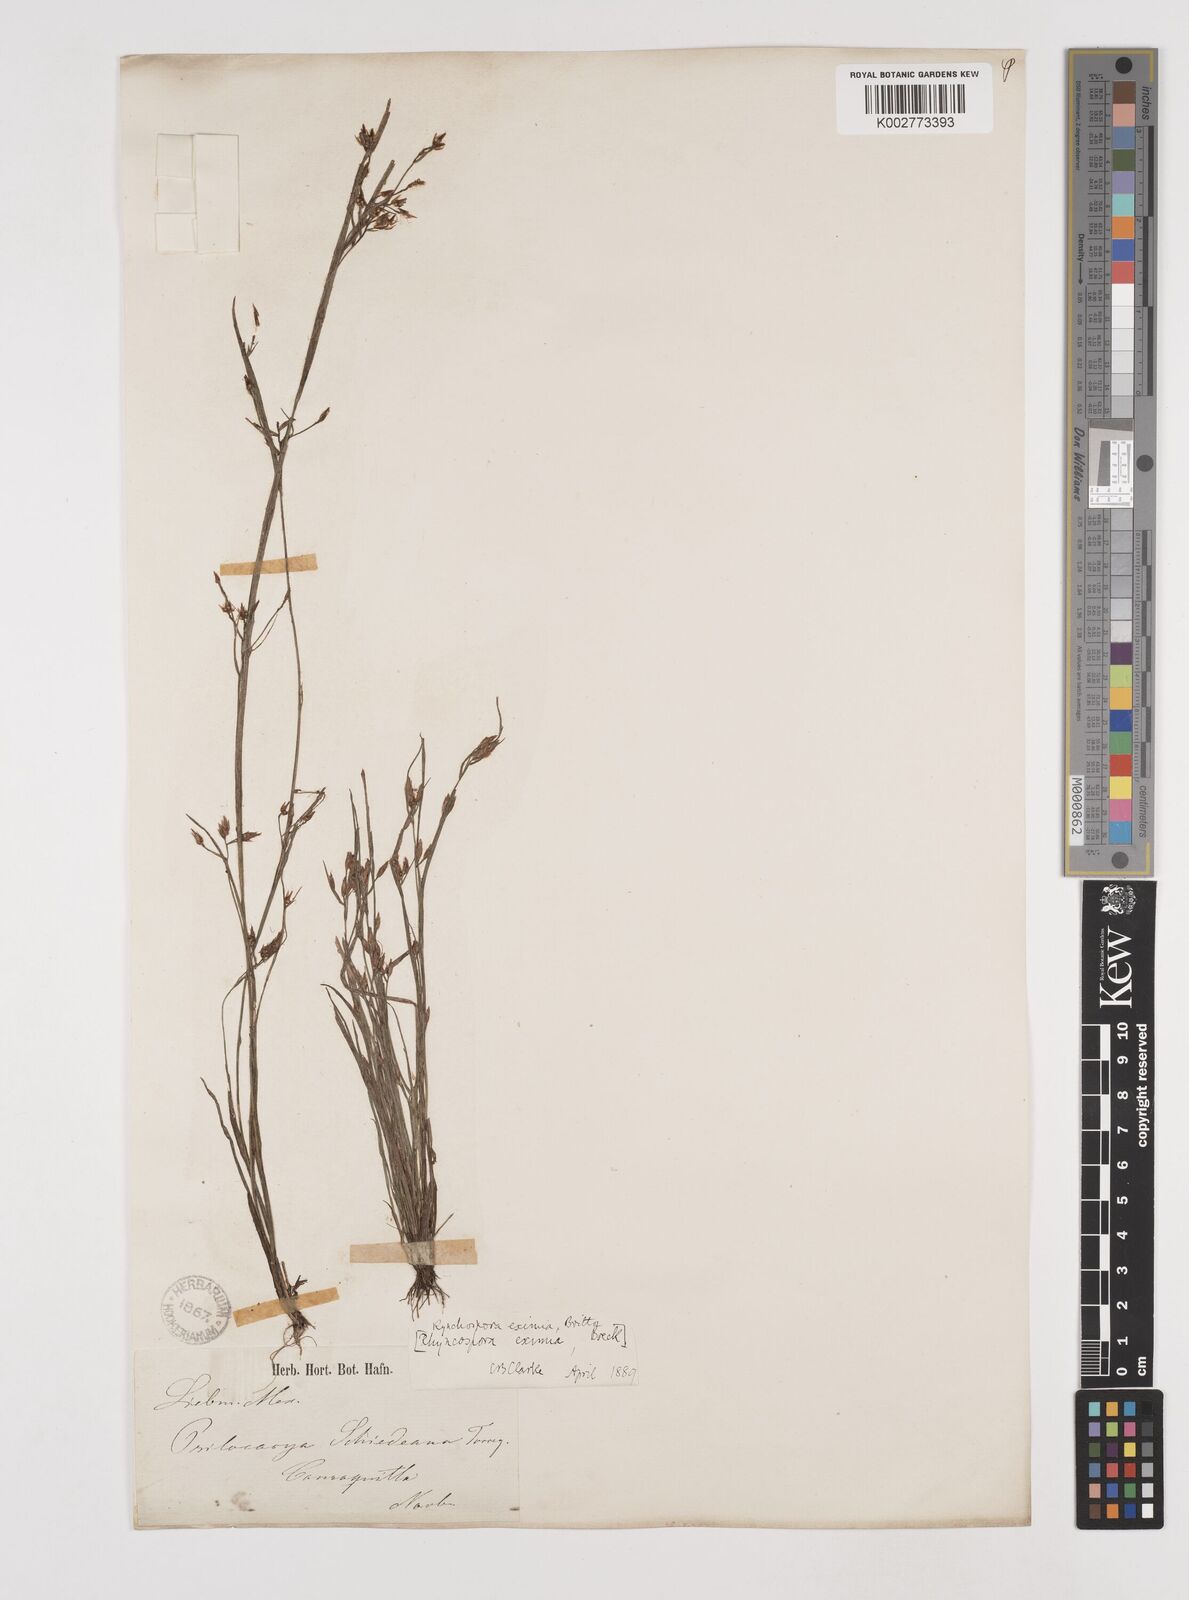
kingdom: Plantae
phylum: Tracheophyta
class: Liliopsida
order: Poales
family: Cyperaceae
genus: Rhynchospora
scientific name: Rhynchospora eximia
